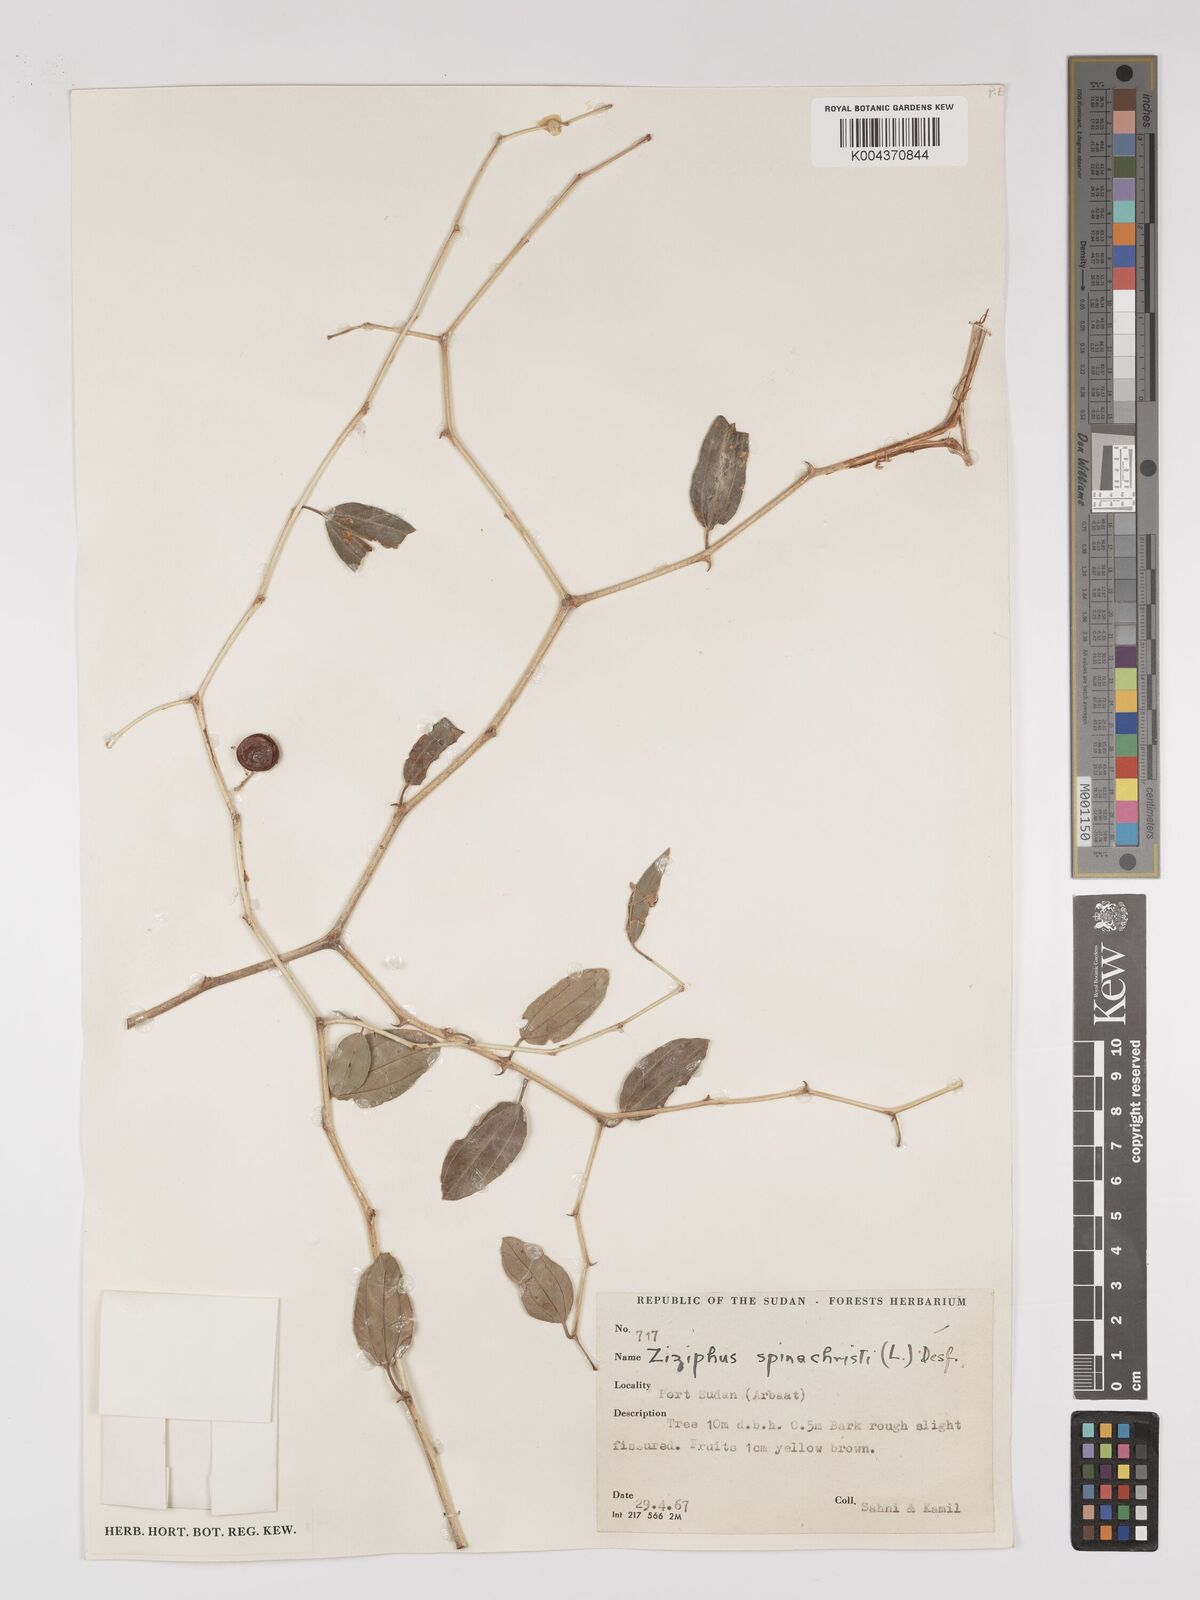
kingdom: Plantae
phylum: Tracheophyta
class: Magnoliopsida
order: Rosales
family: Rhamnaceae
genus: Ziziphus
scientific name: Ziziphus spina-christi
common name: Syrian christ-thorn
